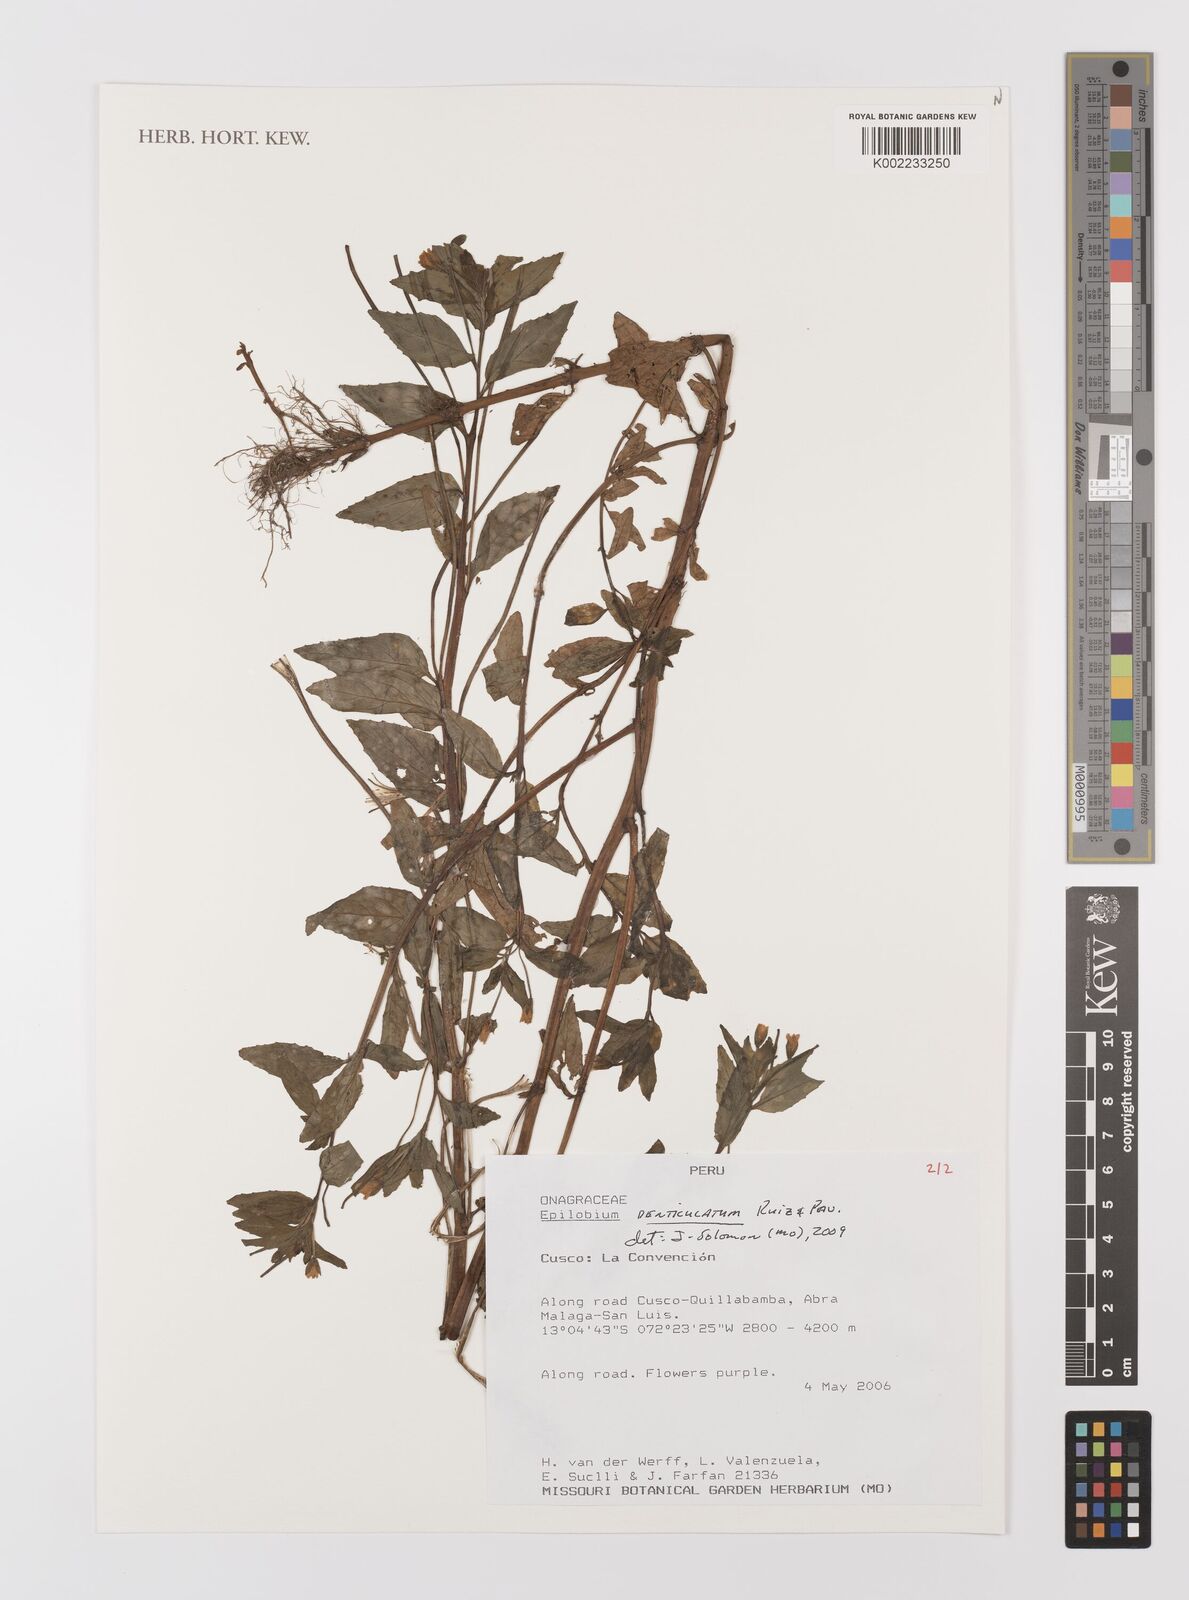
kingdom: Plantae
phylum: Tracheophyta
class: Magnoliopsida
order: Myrtales
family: Onagraceae
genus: Epilobium
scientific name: Epilobium denticulatum
